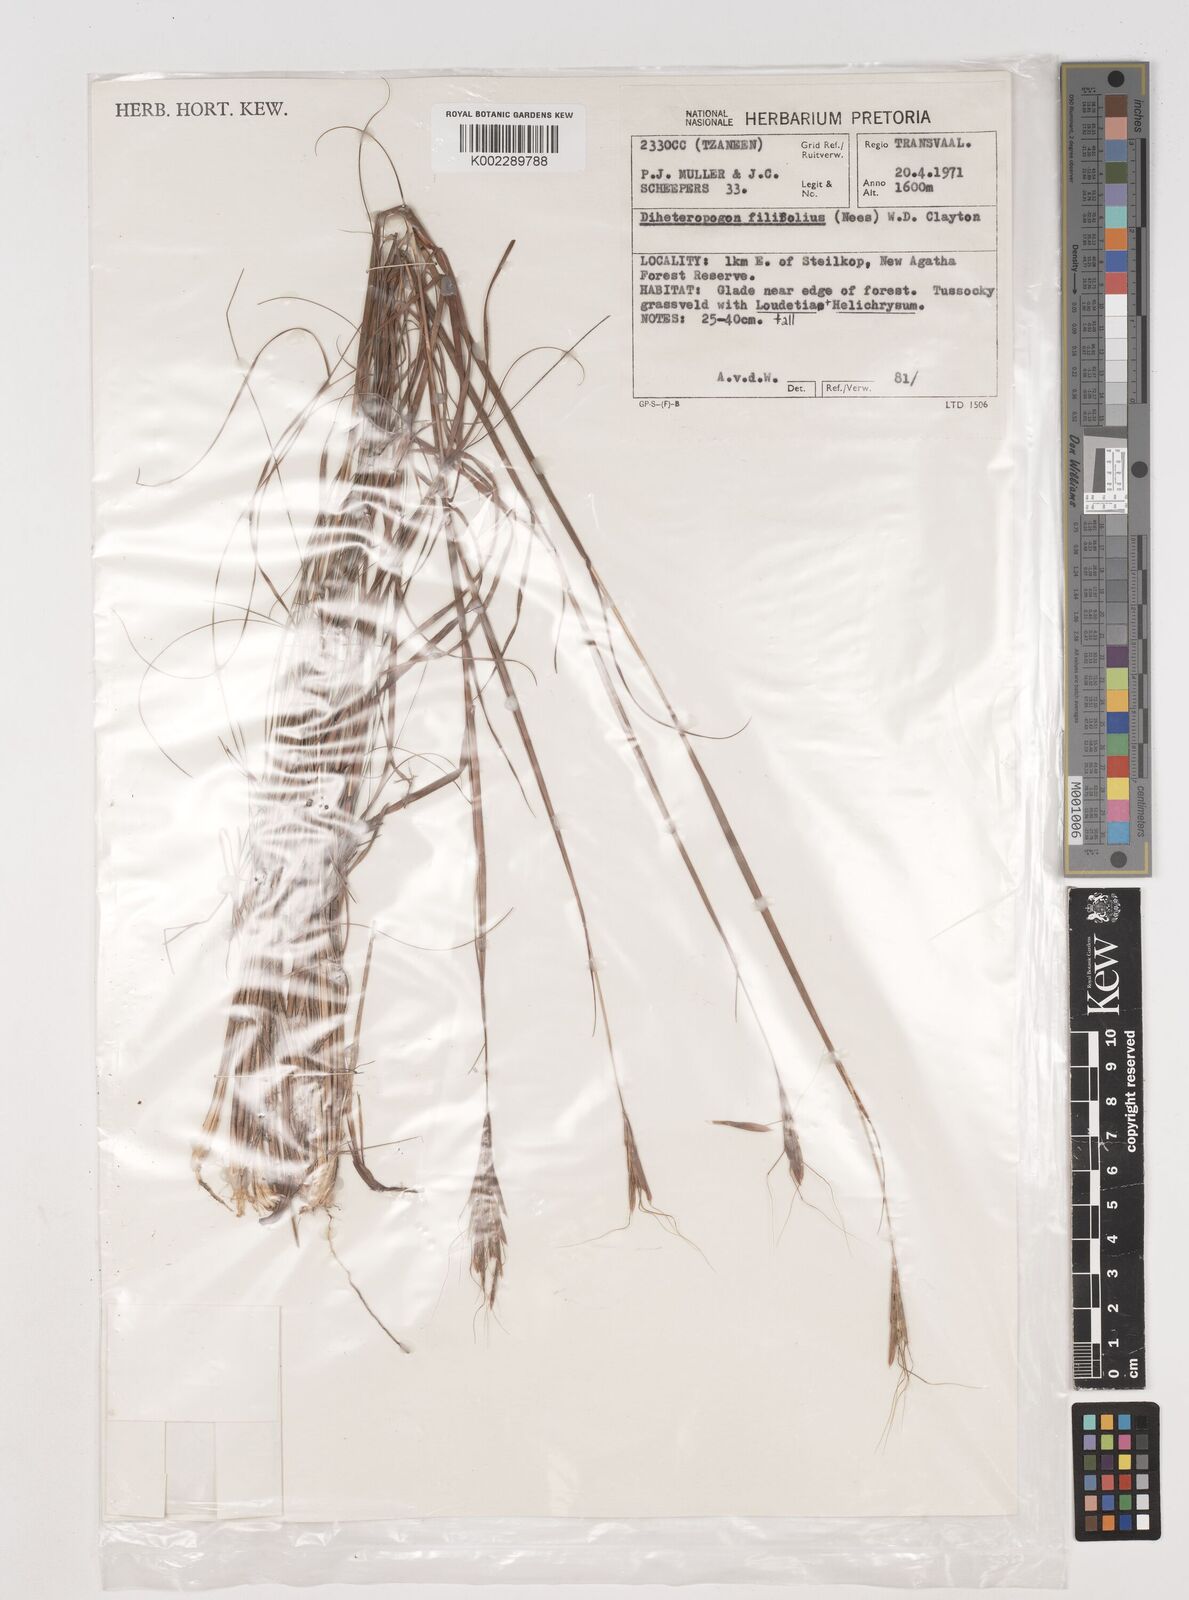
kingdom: Plantae
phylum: Tracheophyta
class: Liliopsida
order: Poales
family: Poaceae
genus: Diheteropogon
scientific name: Diheteropogon filifolius
